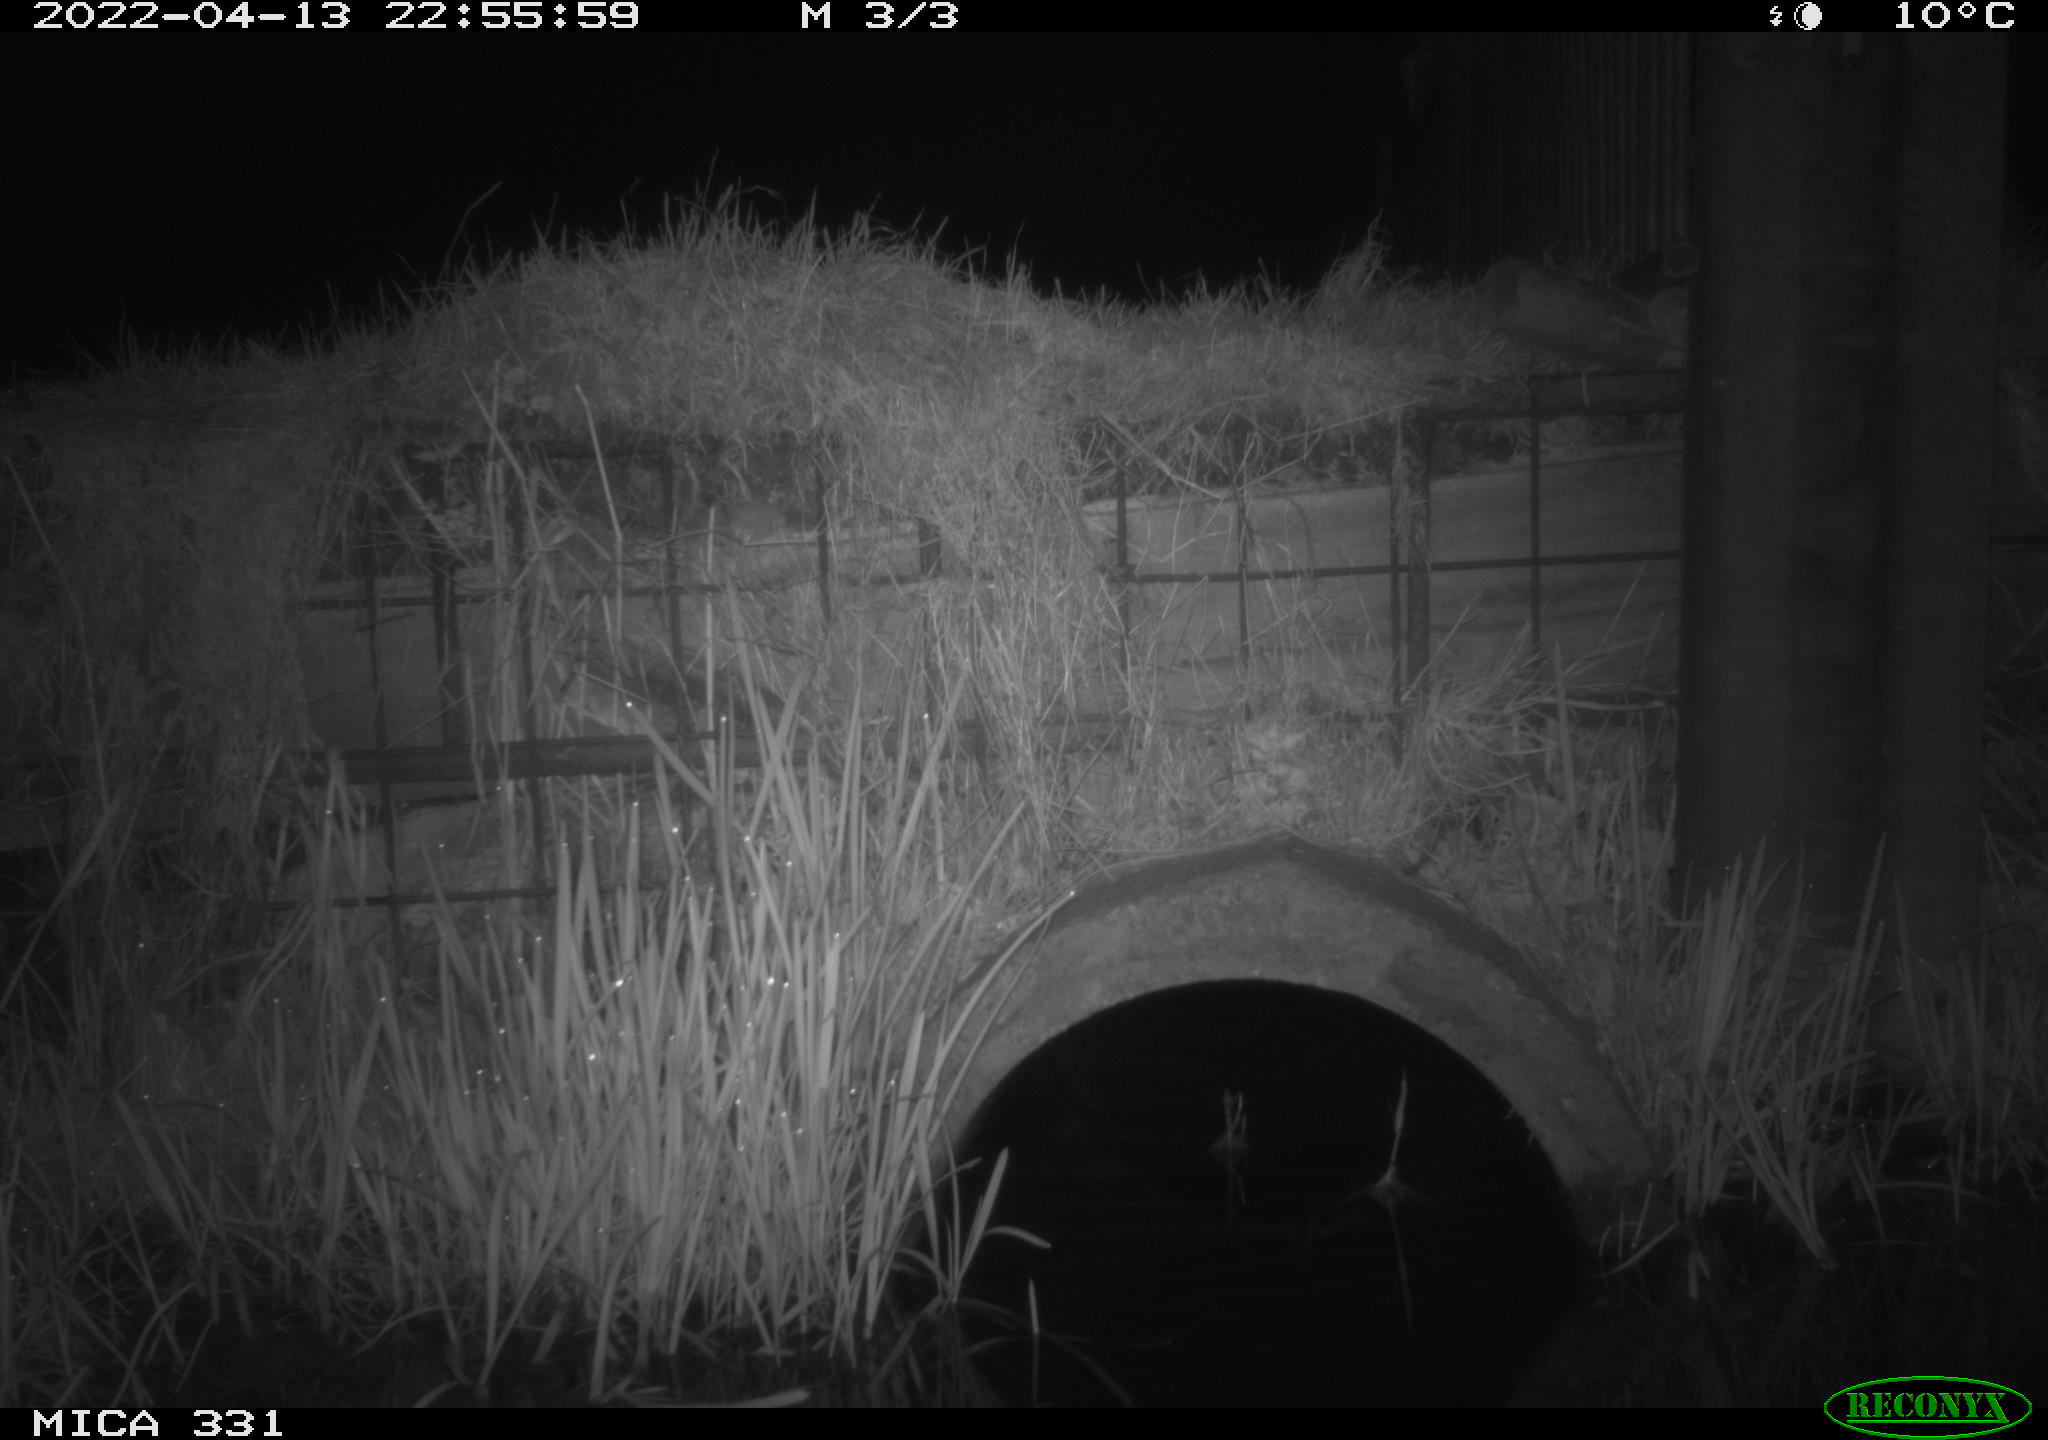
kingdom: Animalia
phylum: Chordata
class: Mammalia
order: Rodentia
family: Muridae
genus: Rattus
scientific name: Rattus norvegicus
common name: Brown rat
